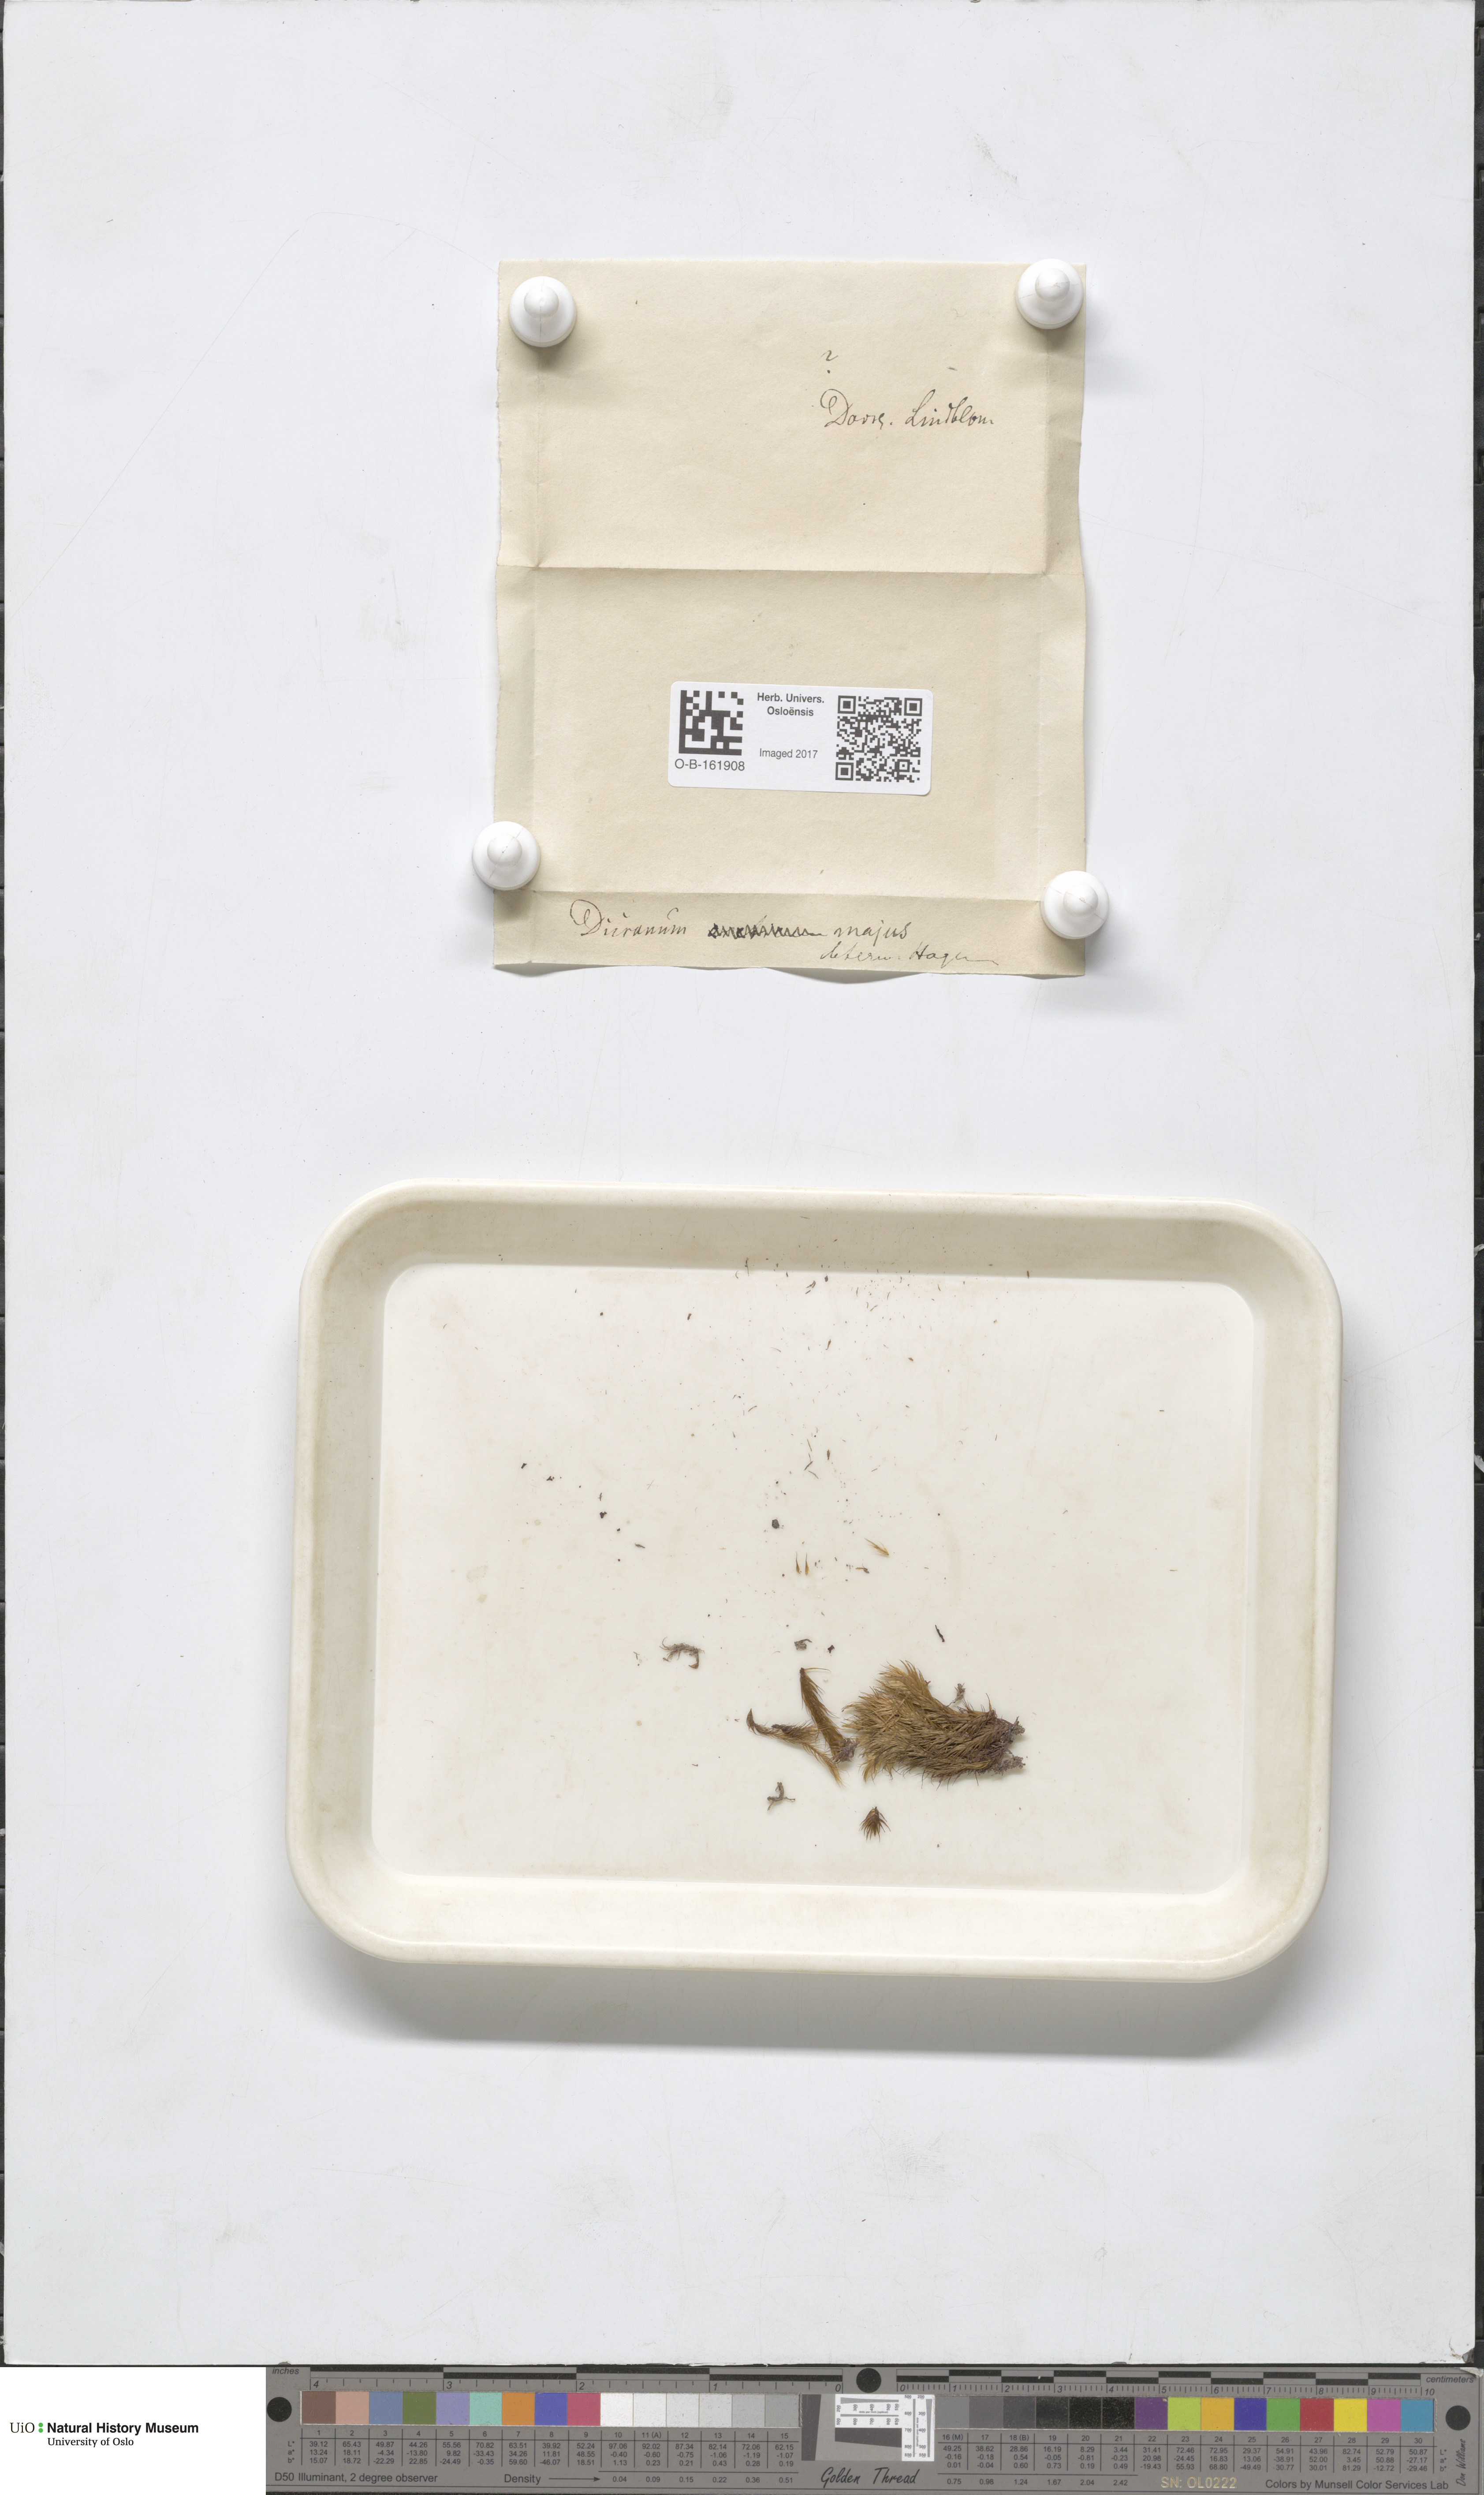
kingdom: Plantae
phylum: Bryophyta
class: Bryopsida
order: Dicranales
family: Dicranaceae
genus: Dicranum
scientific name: Dicranum majus
